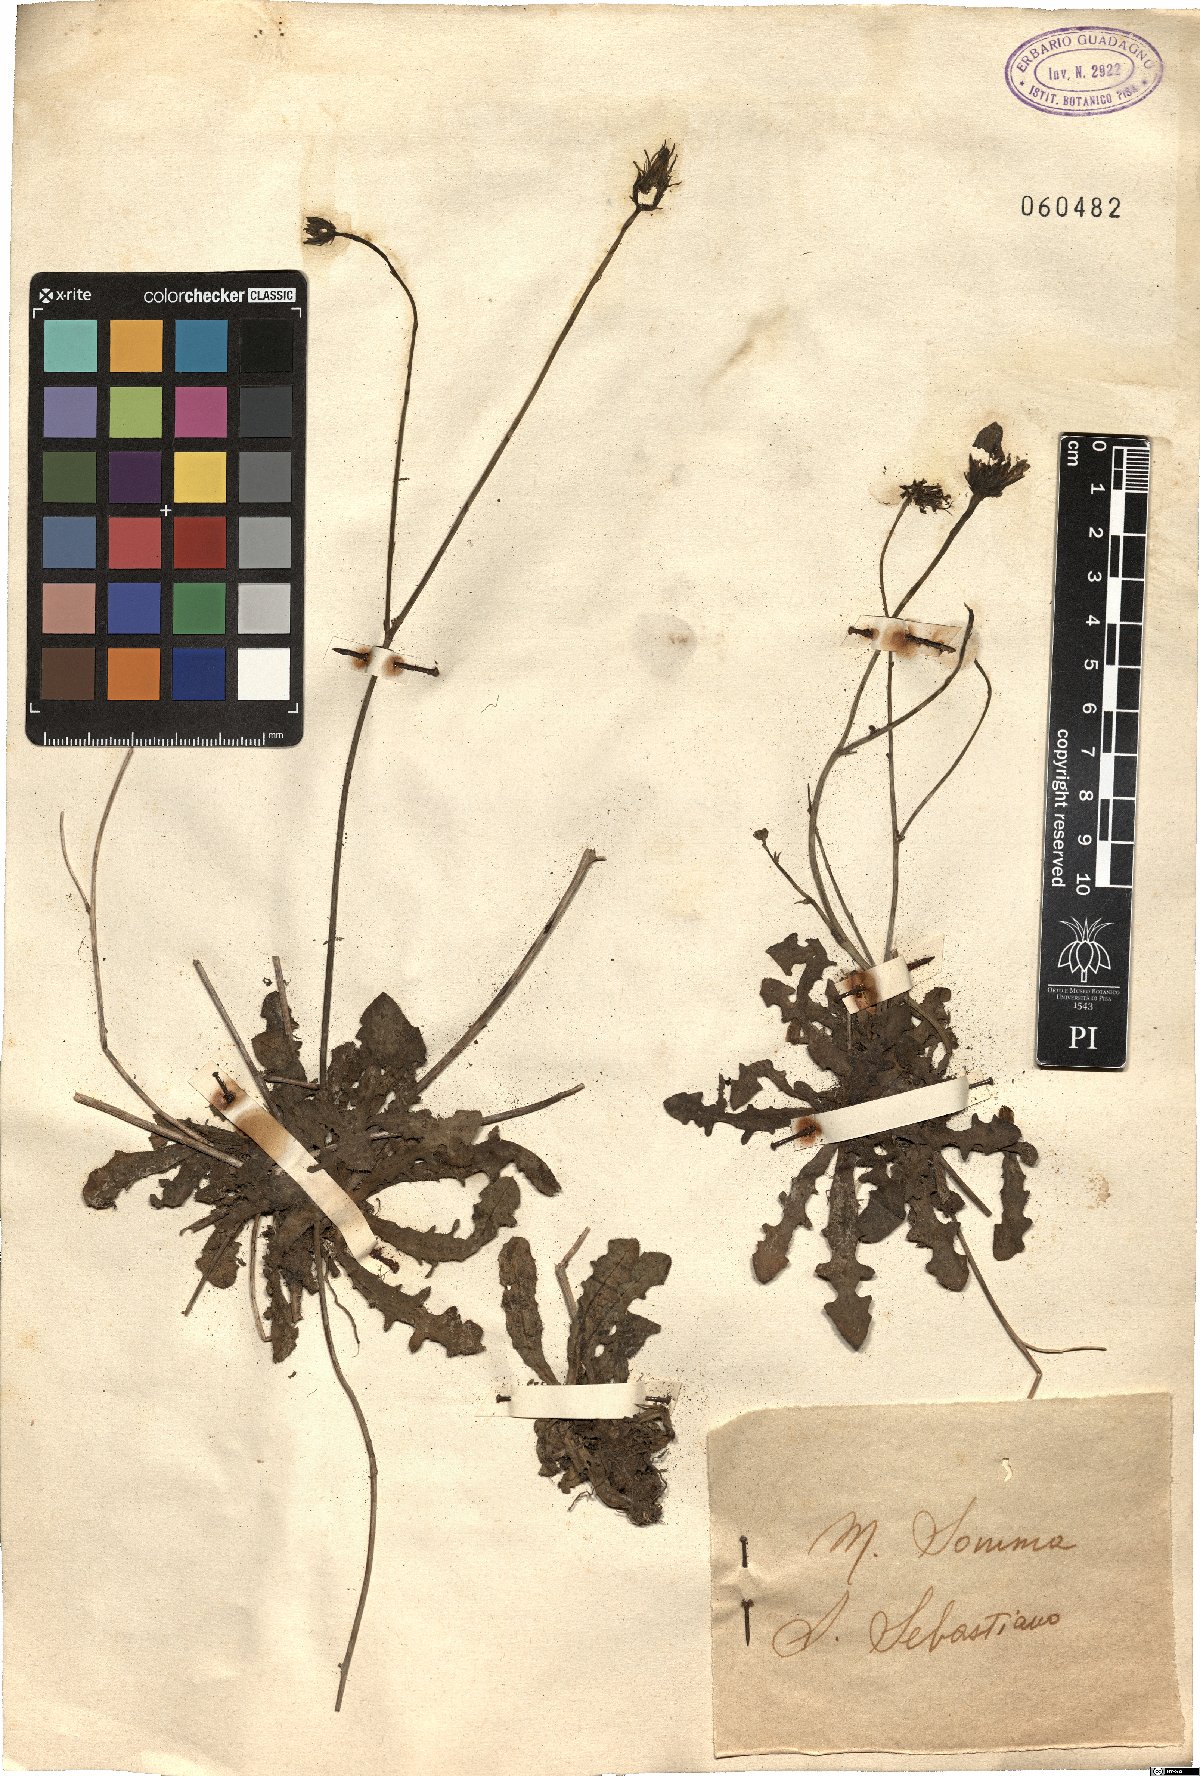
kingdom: Plantae
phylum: Tracheophyta
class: Magnoliopsida
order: Asterales
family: Asteraceae
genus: Crepis
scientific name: Crepis
